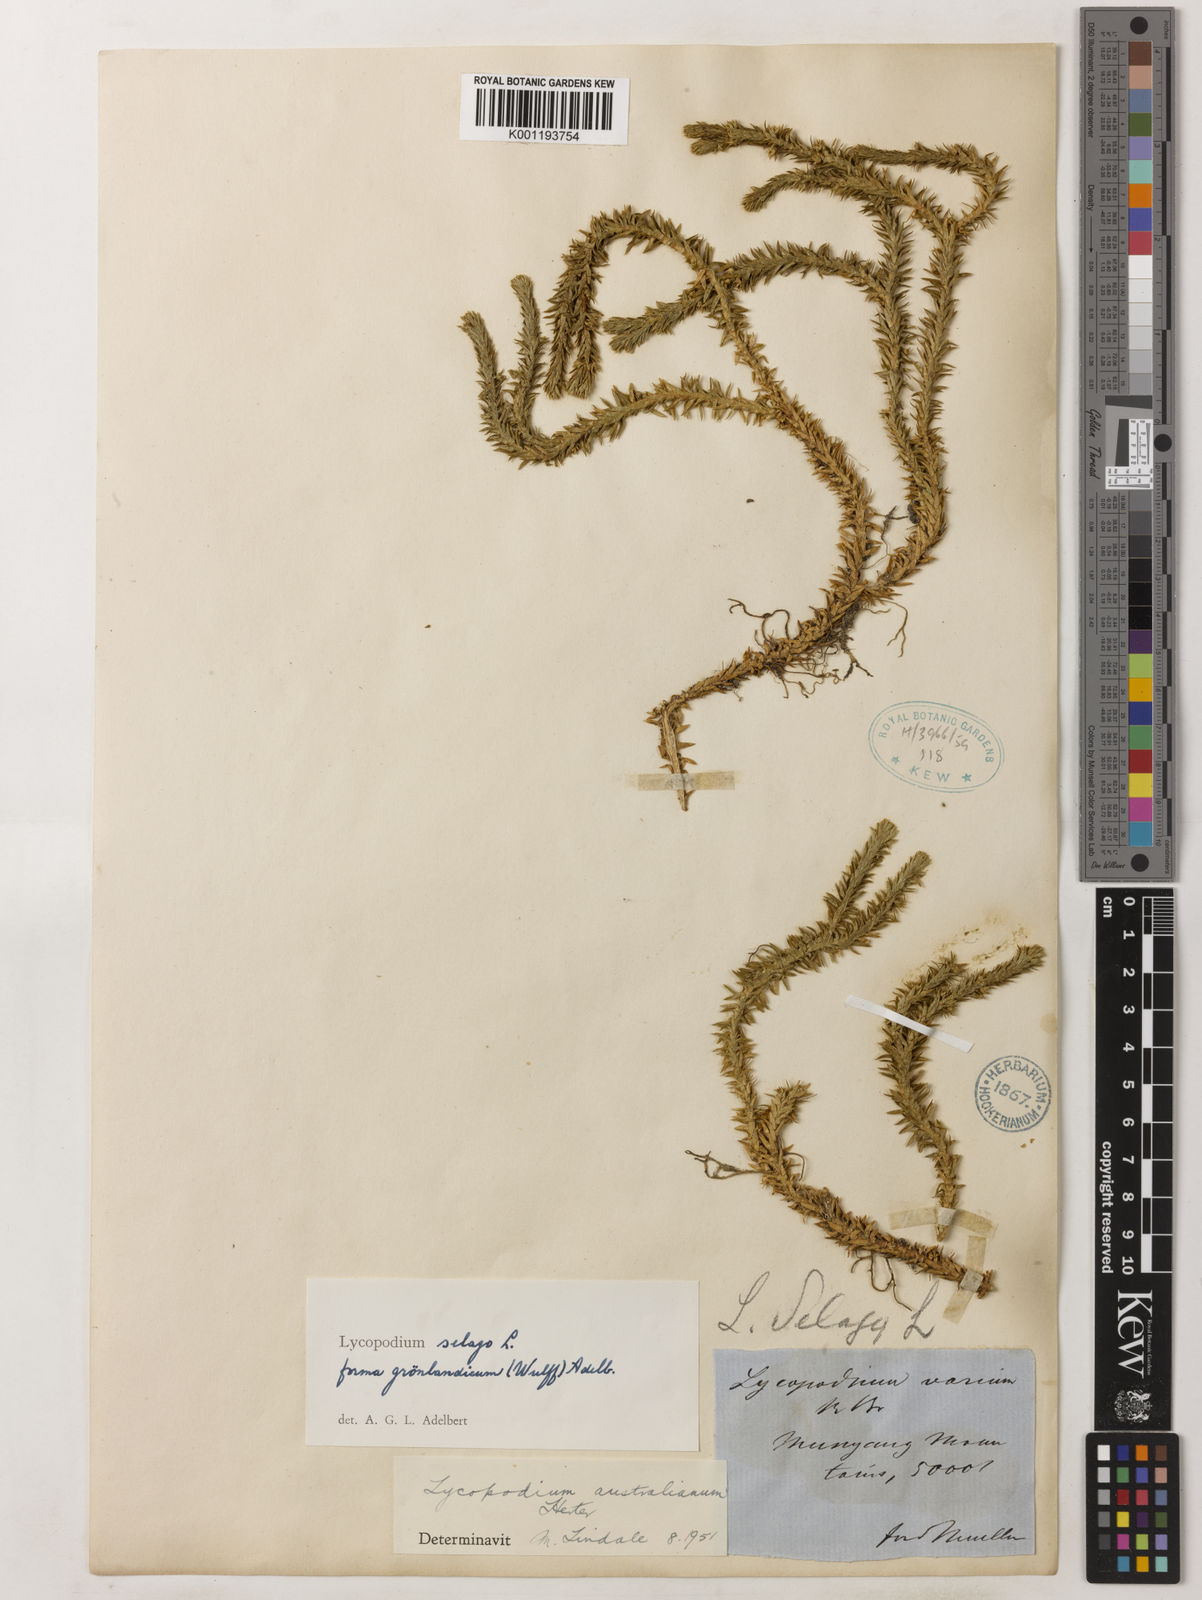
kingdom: Plantae
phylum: Tracheophyta
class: Lycopodiopsida
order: Lycopodiales
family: Lycopodiaceae
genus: Huperzia
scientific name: Huperzia australiana
